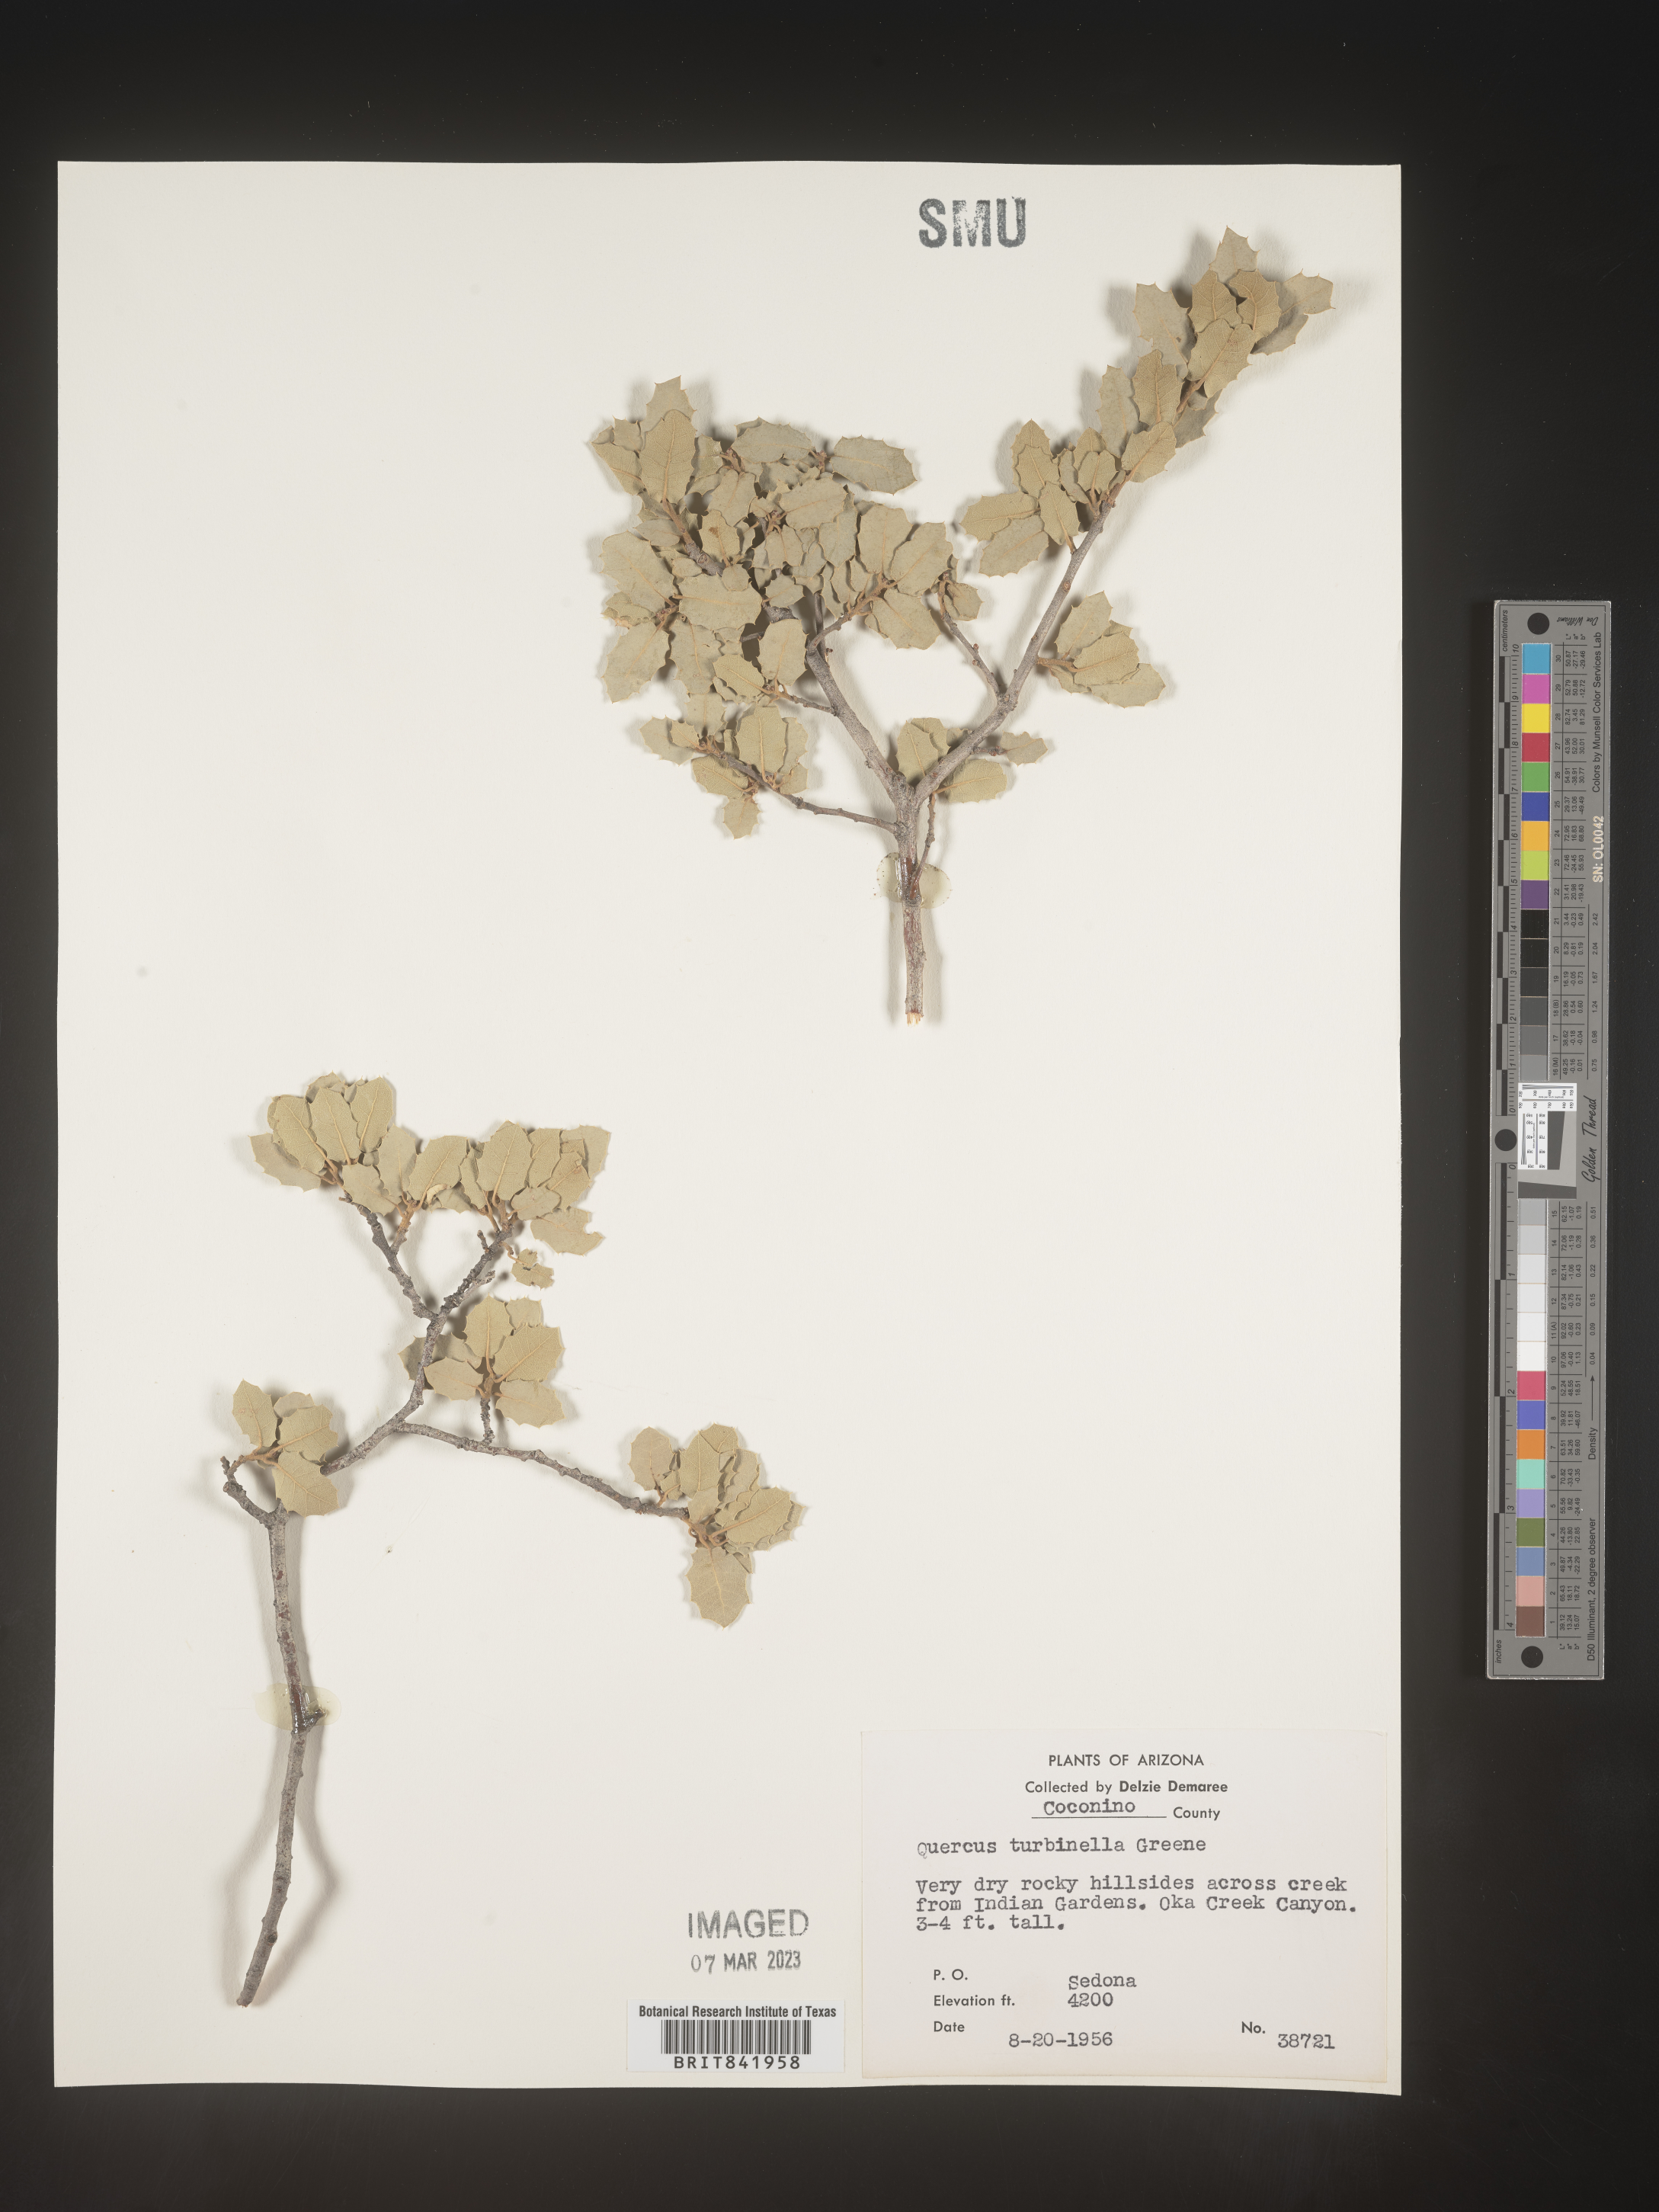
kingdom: Plantae
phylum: Tracheophyta
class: Magnoliopsida
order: Fagales
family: Fagaceae
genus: Quercus
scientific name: Quercus turbinella
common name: Sonoran scrub oak
